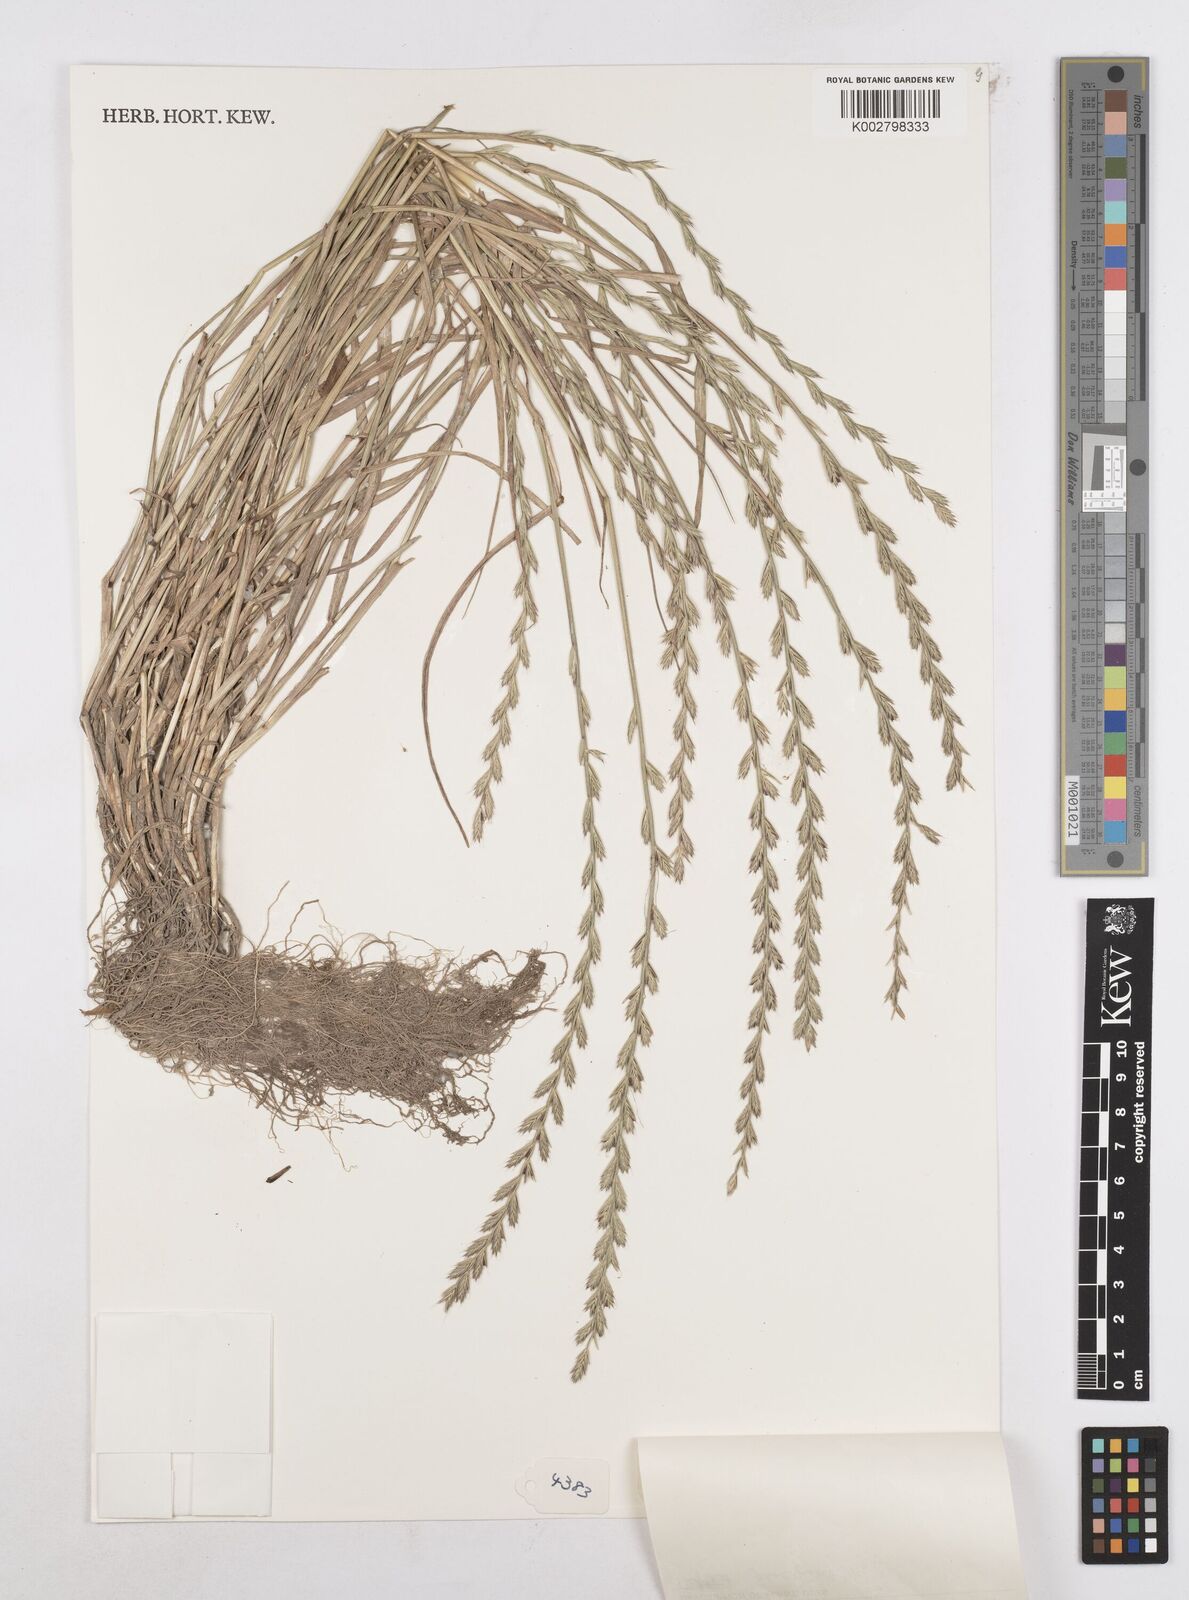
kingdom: Plantae
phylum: Tracheophyta
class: Liliopsida
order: Poales
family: Poaceae
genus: Lolium
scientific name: Lolium multiflorum
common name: Annual ryegrass
